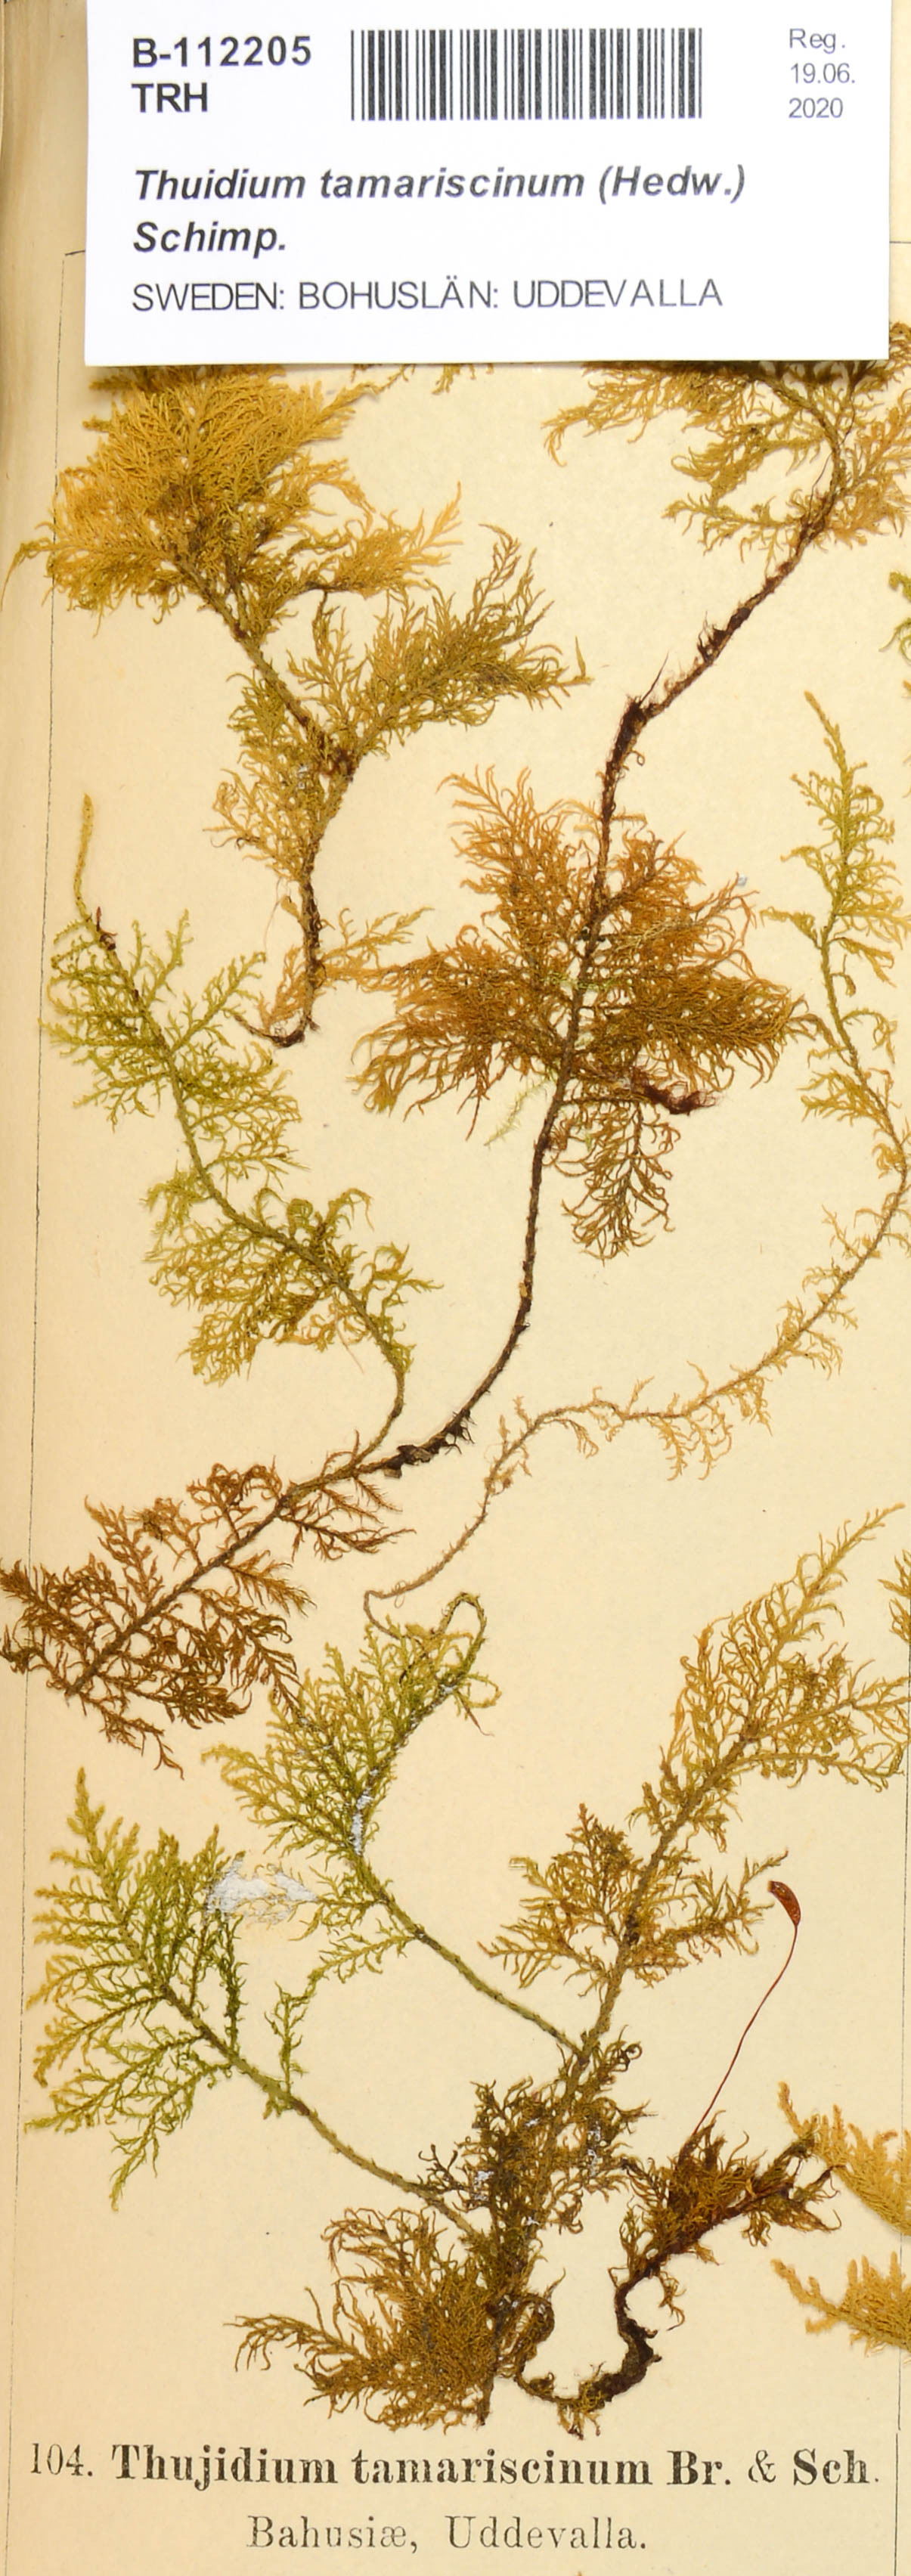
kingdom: Plantae
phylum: Bryophyta
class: Bryopsida
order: Hypnales
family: Thuidiaceae
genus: Thuidium
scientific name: Thuidium tamariscinum
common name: Common tamarisk-moss
